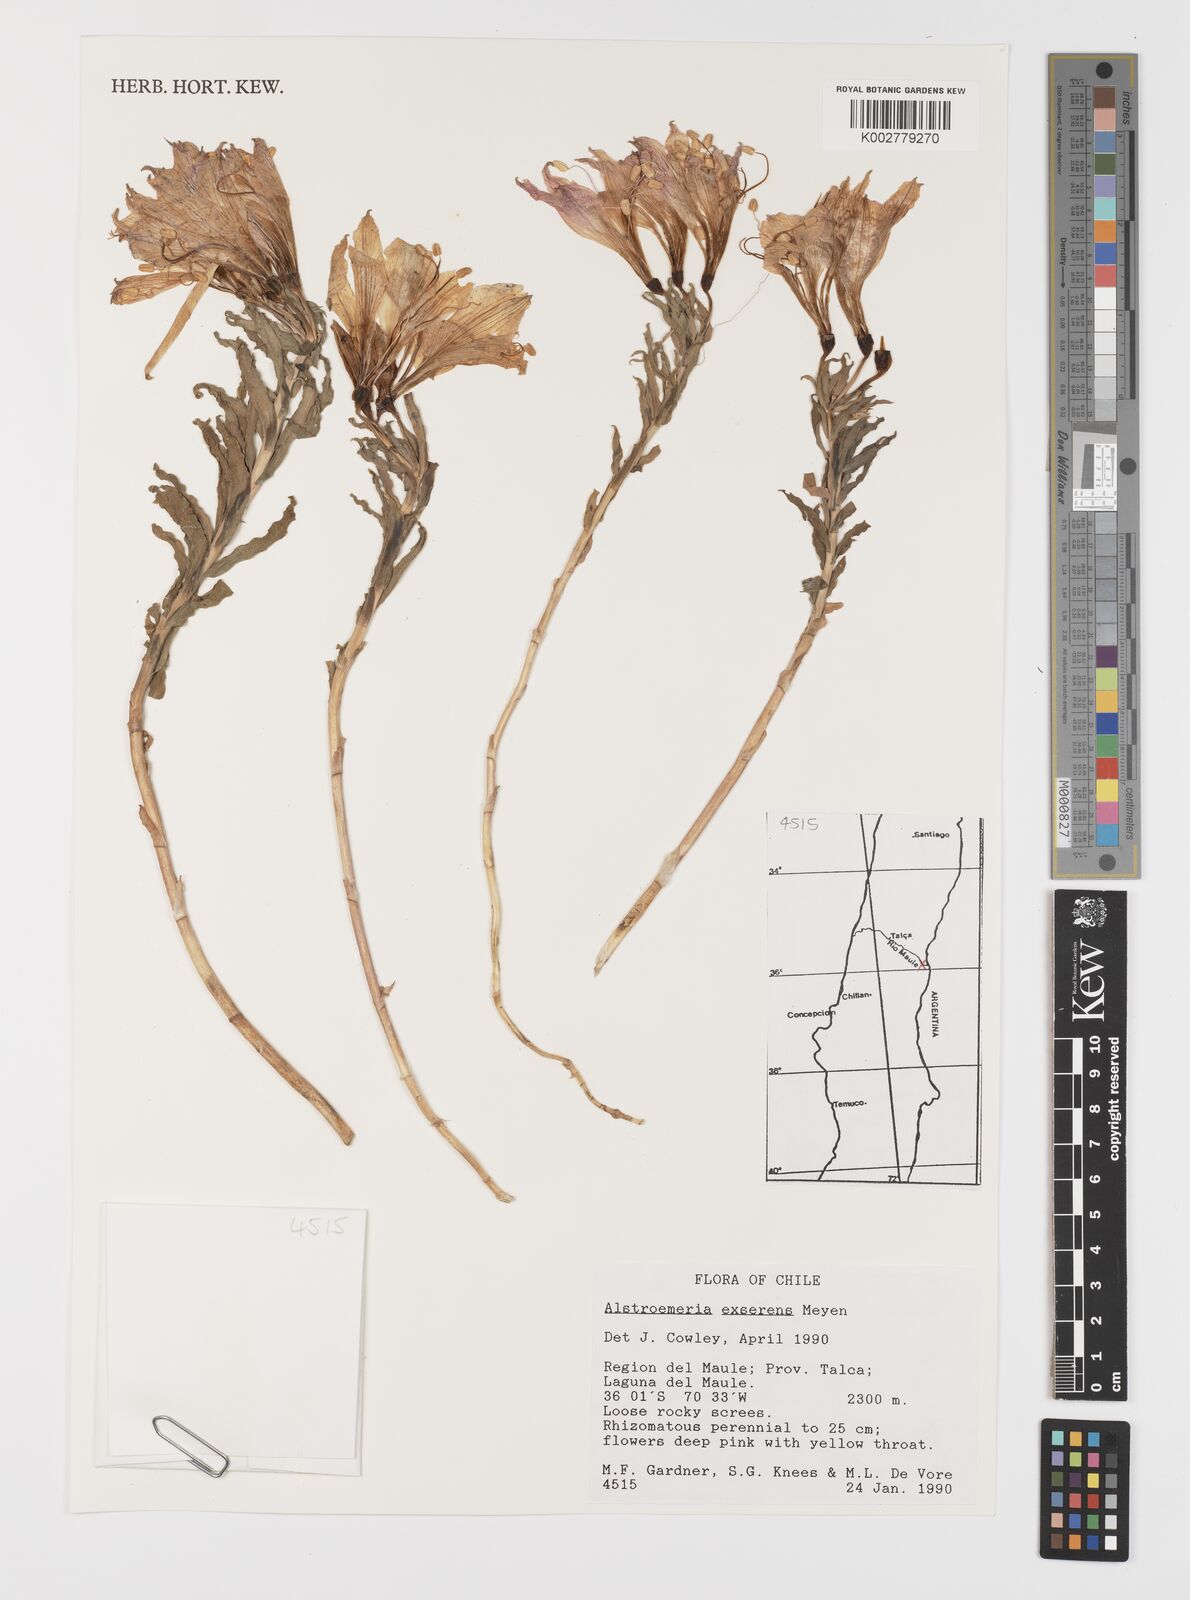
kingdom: Plantae
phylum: Tracheophyta
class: Liliopsida
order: Liliales
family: Alstroemeriaceae
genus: Alstroemeria
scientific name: Alstroemeria exserens
